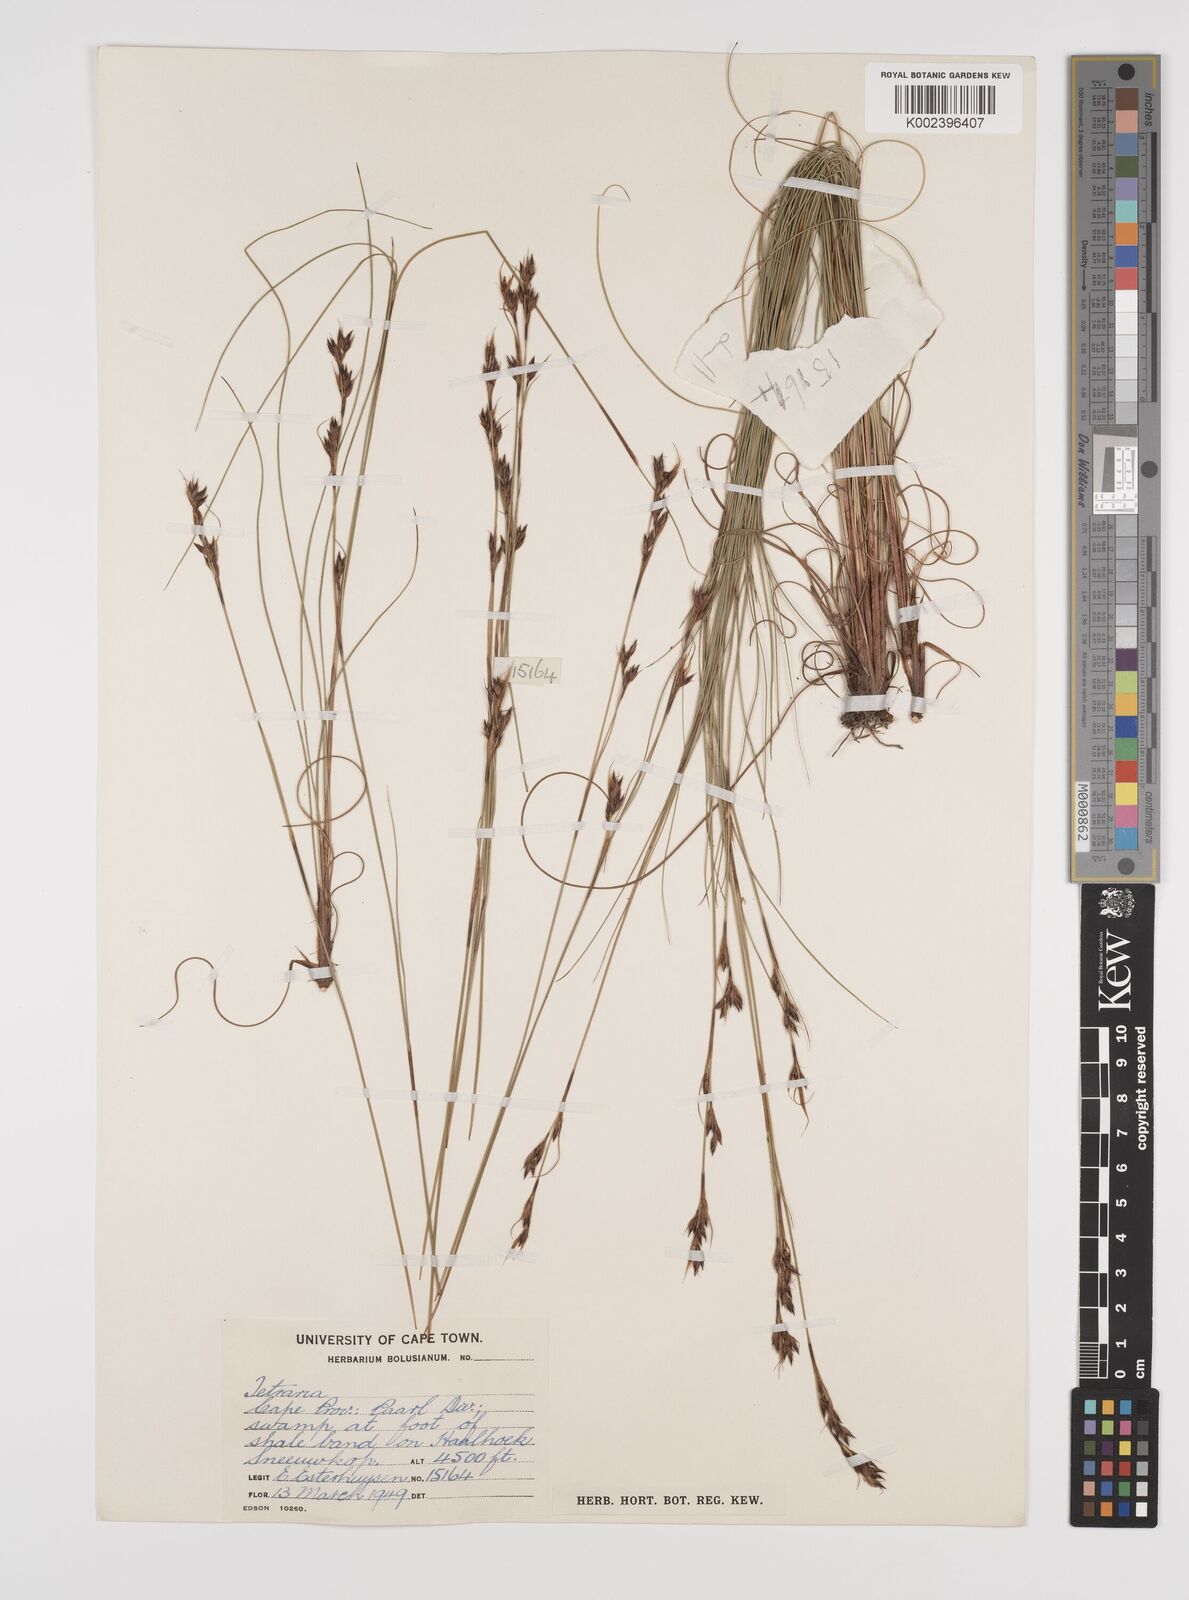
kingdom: Plantae
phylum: Tracheophyta
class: Liliopsida
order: Poales
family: Cyperaceae
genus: Tetraria
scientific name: Tetraria
